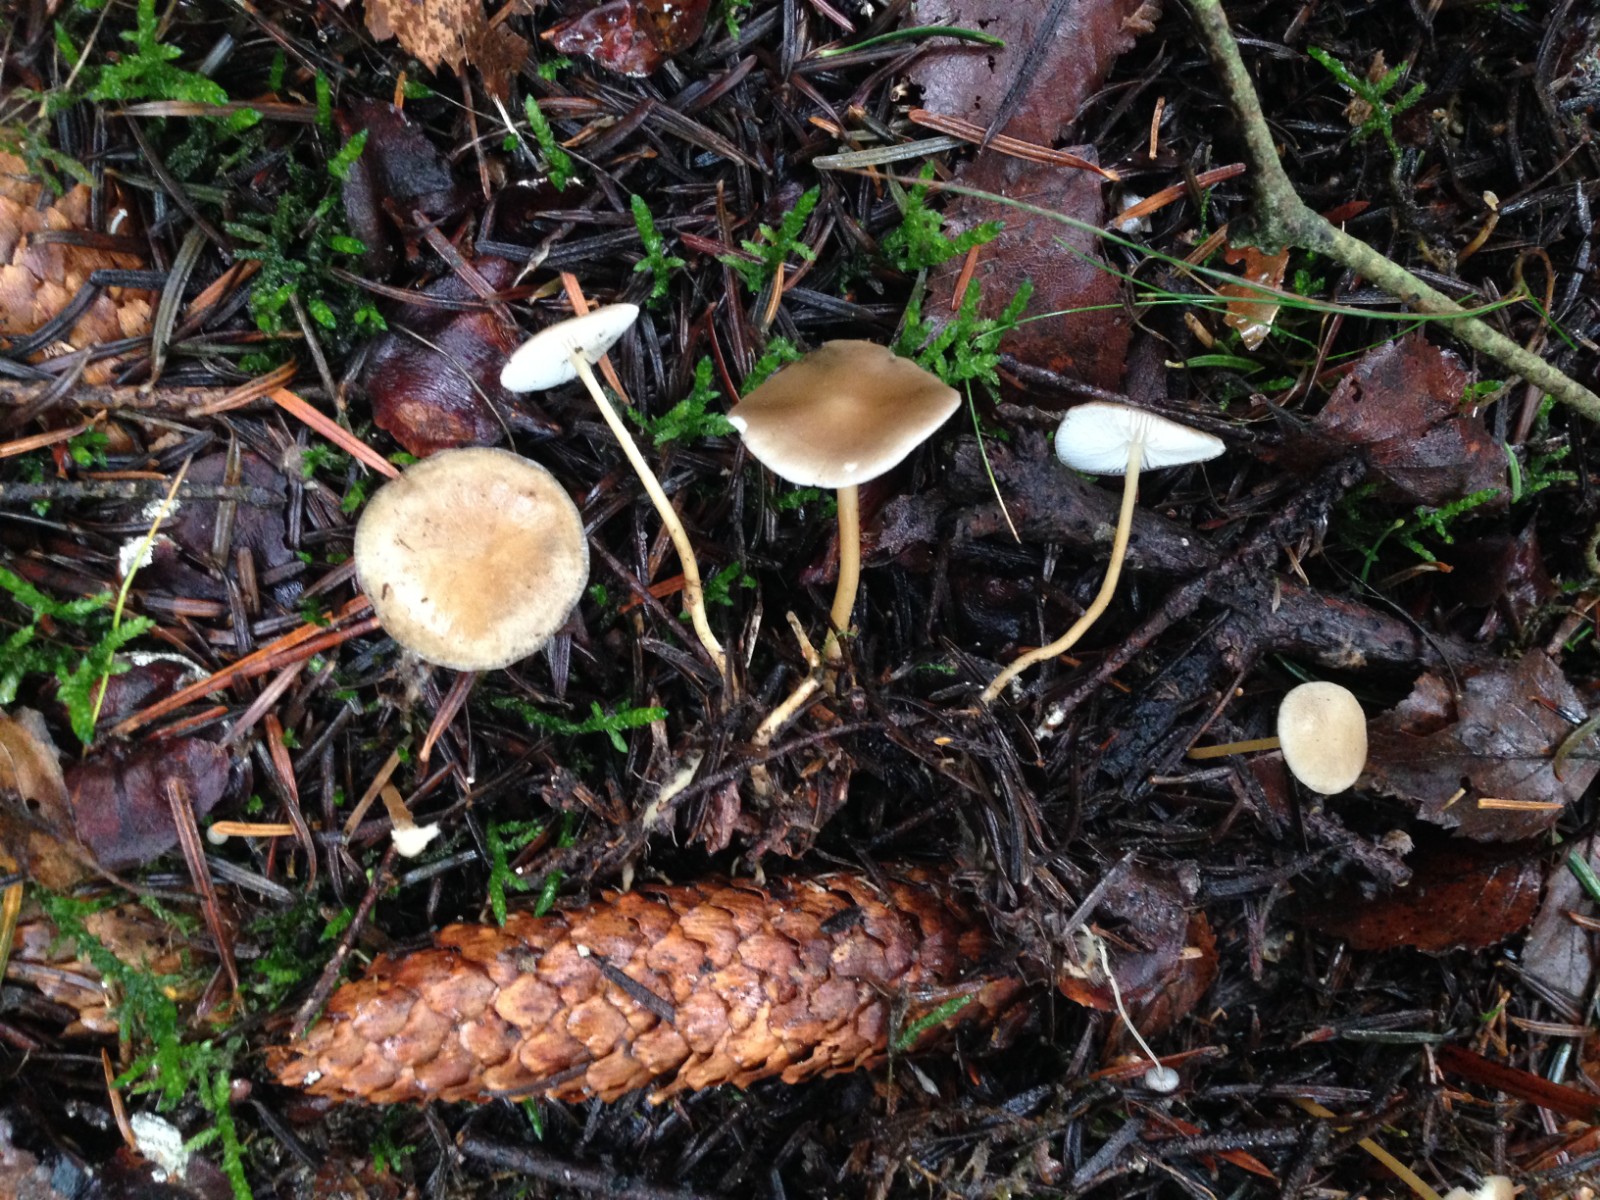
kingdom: Fungi
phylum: Basidiomycota
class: Agaricomycetes
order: Agaricales
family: Physalacriaceae
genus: Strobilurus
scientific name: Strobilurus esculentus
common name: gran-koglehat
